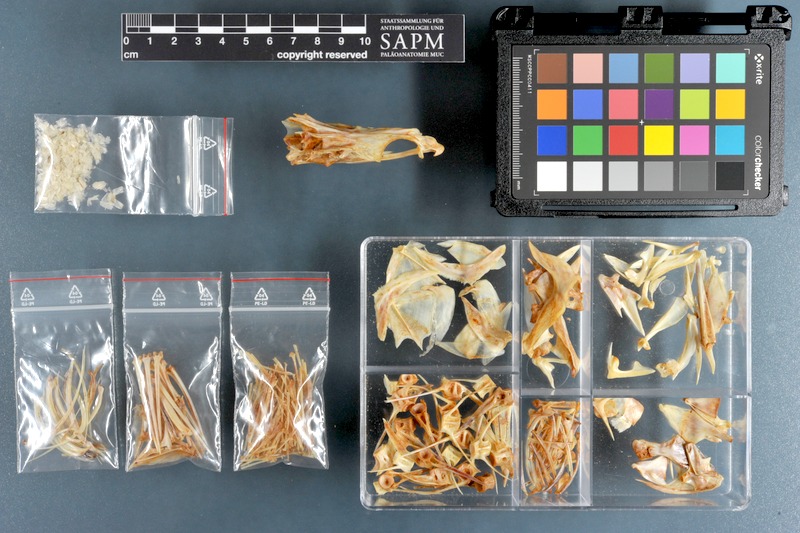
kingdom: Animalia
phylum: Chordata
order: Perciformes
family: Serranidae
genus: Cromileptes
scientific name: Cromileptes altivelis
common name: Humpback grouper
